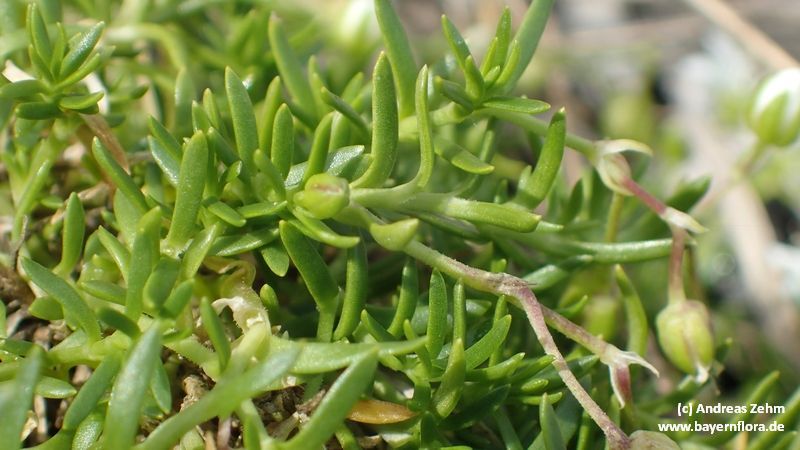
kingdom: Plantae
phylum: Tracheophyta
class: Magnoliopsida
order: Caryophyllales
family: Caryophyllaceae
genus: Moehringia
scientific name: Moehringia ciliata
